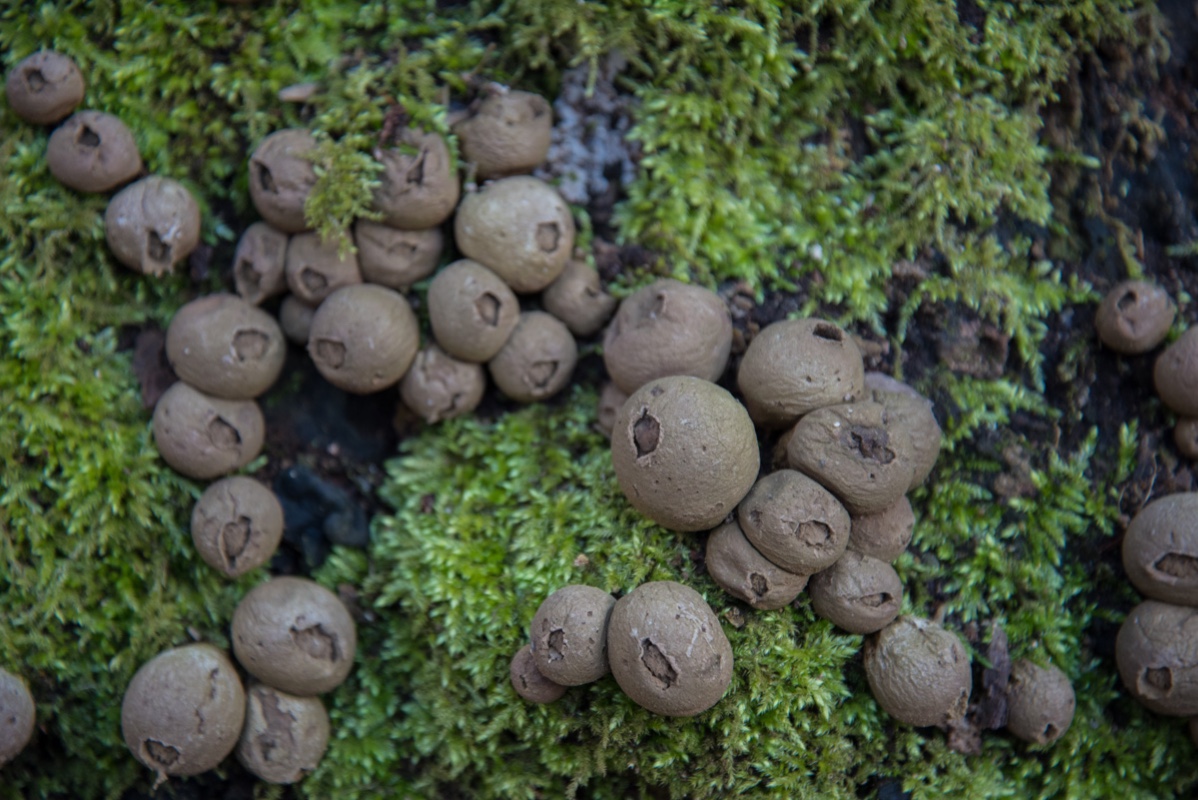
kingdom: Fungi
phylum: Basidiomycota
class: Agaricomycetes
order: Agaricales
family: Lycoperdaceae
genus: Apioperdon
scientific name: Apioperdon pyriforme
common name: pære-støvbold
